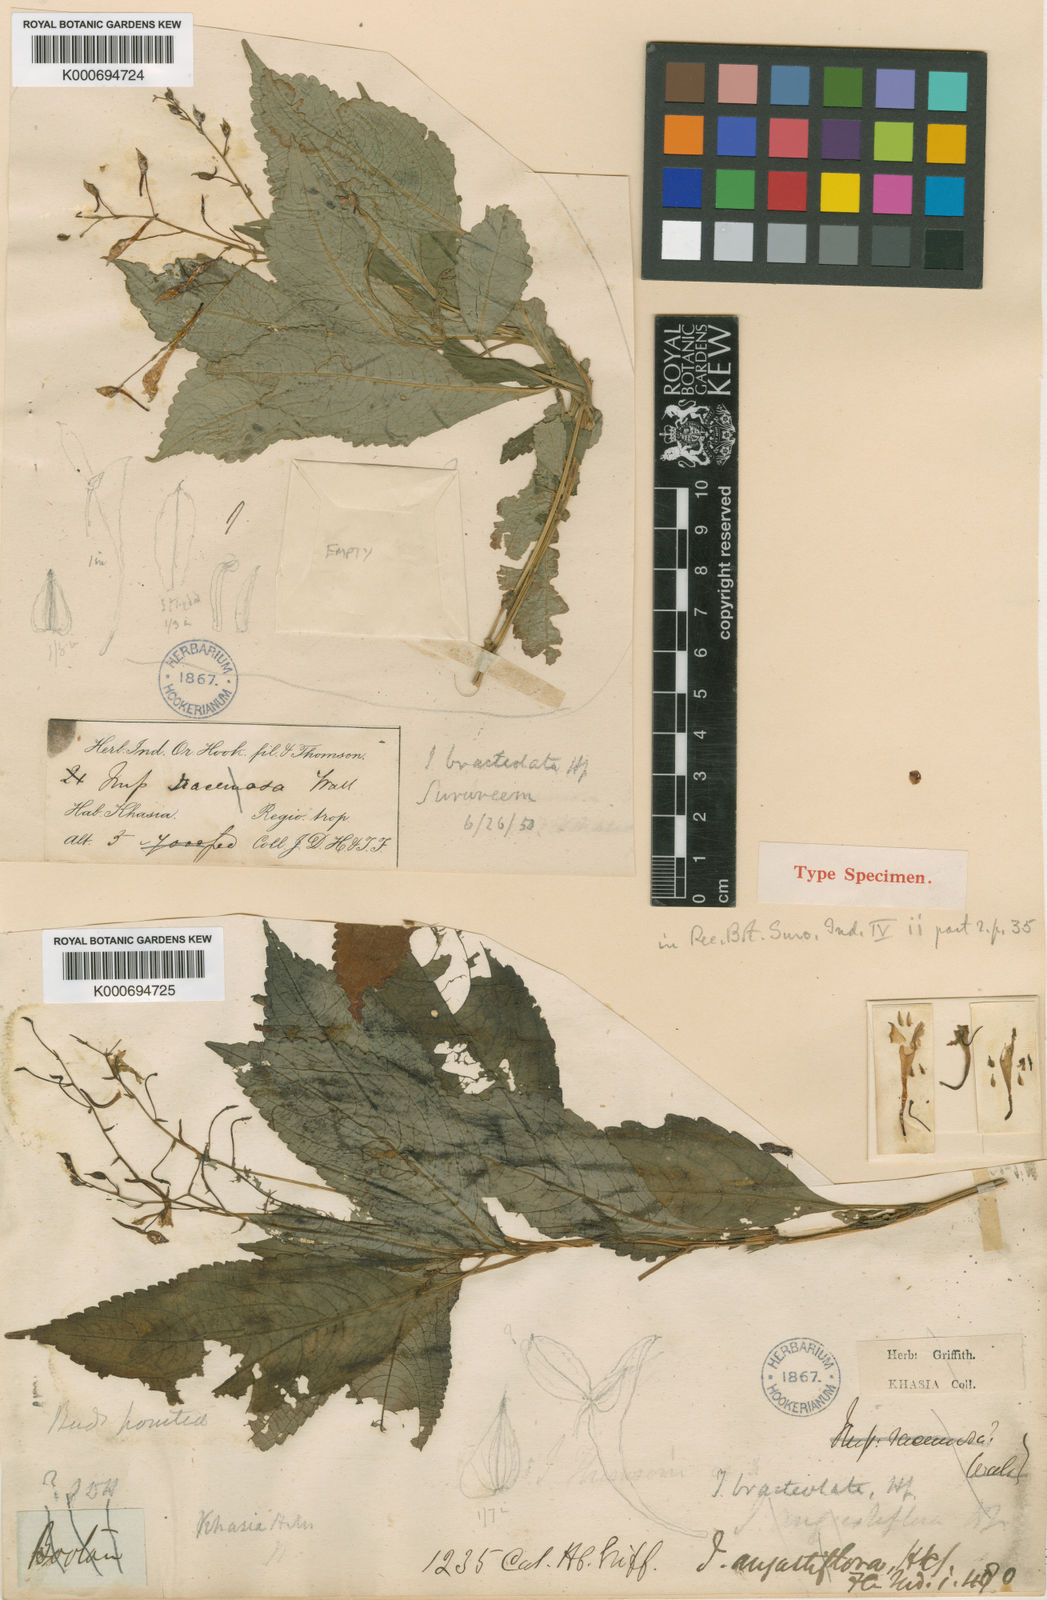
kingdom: Plantae
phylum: Tracheophyta
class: Magnoliopsida
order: Ericales
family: Balsaminaceae
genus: Impatiens
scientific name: Impatiens bracteolata
